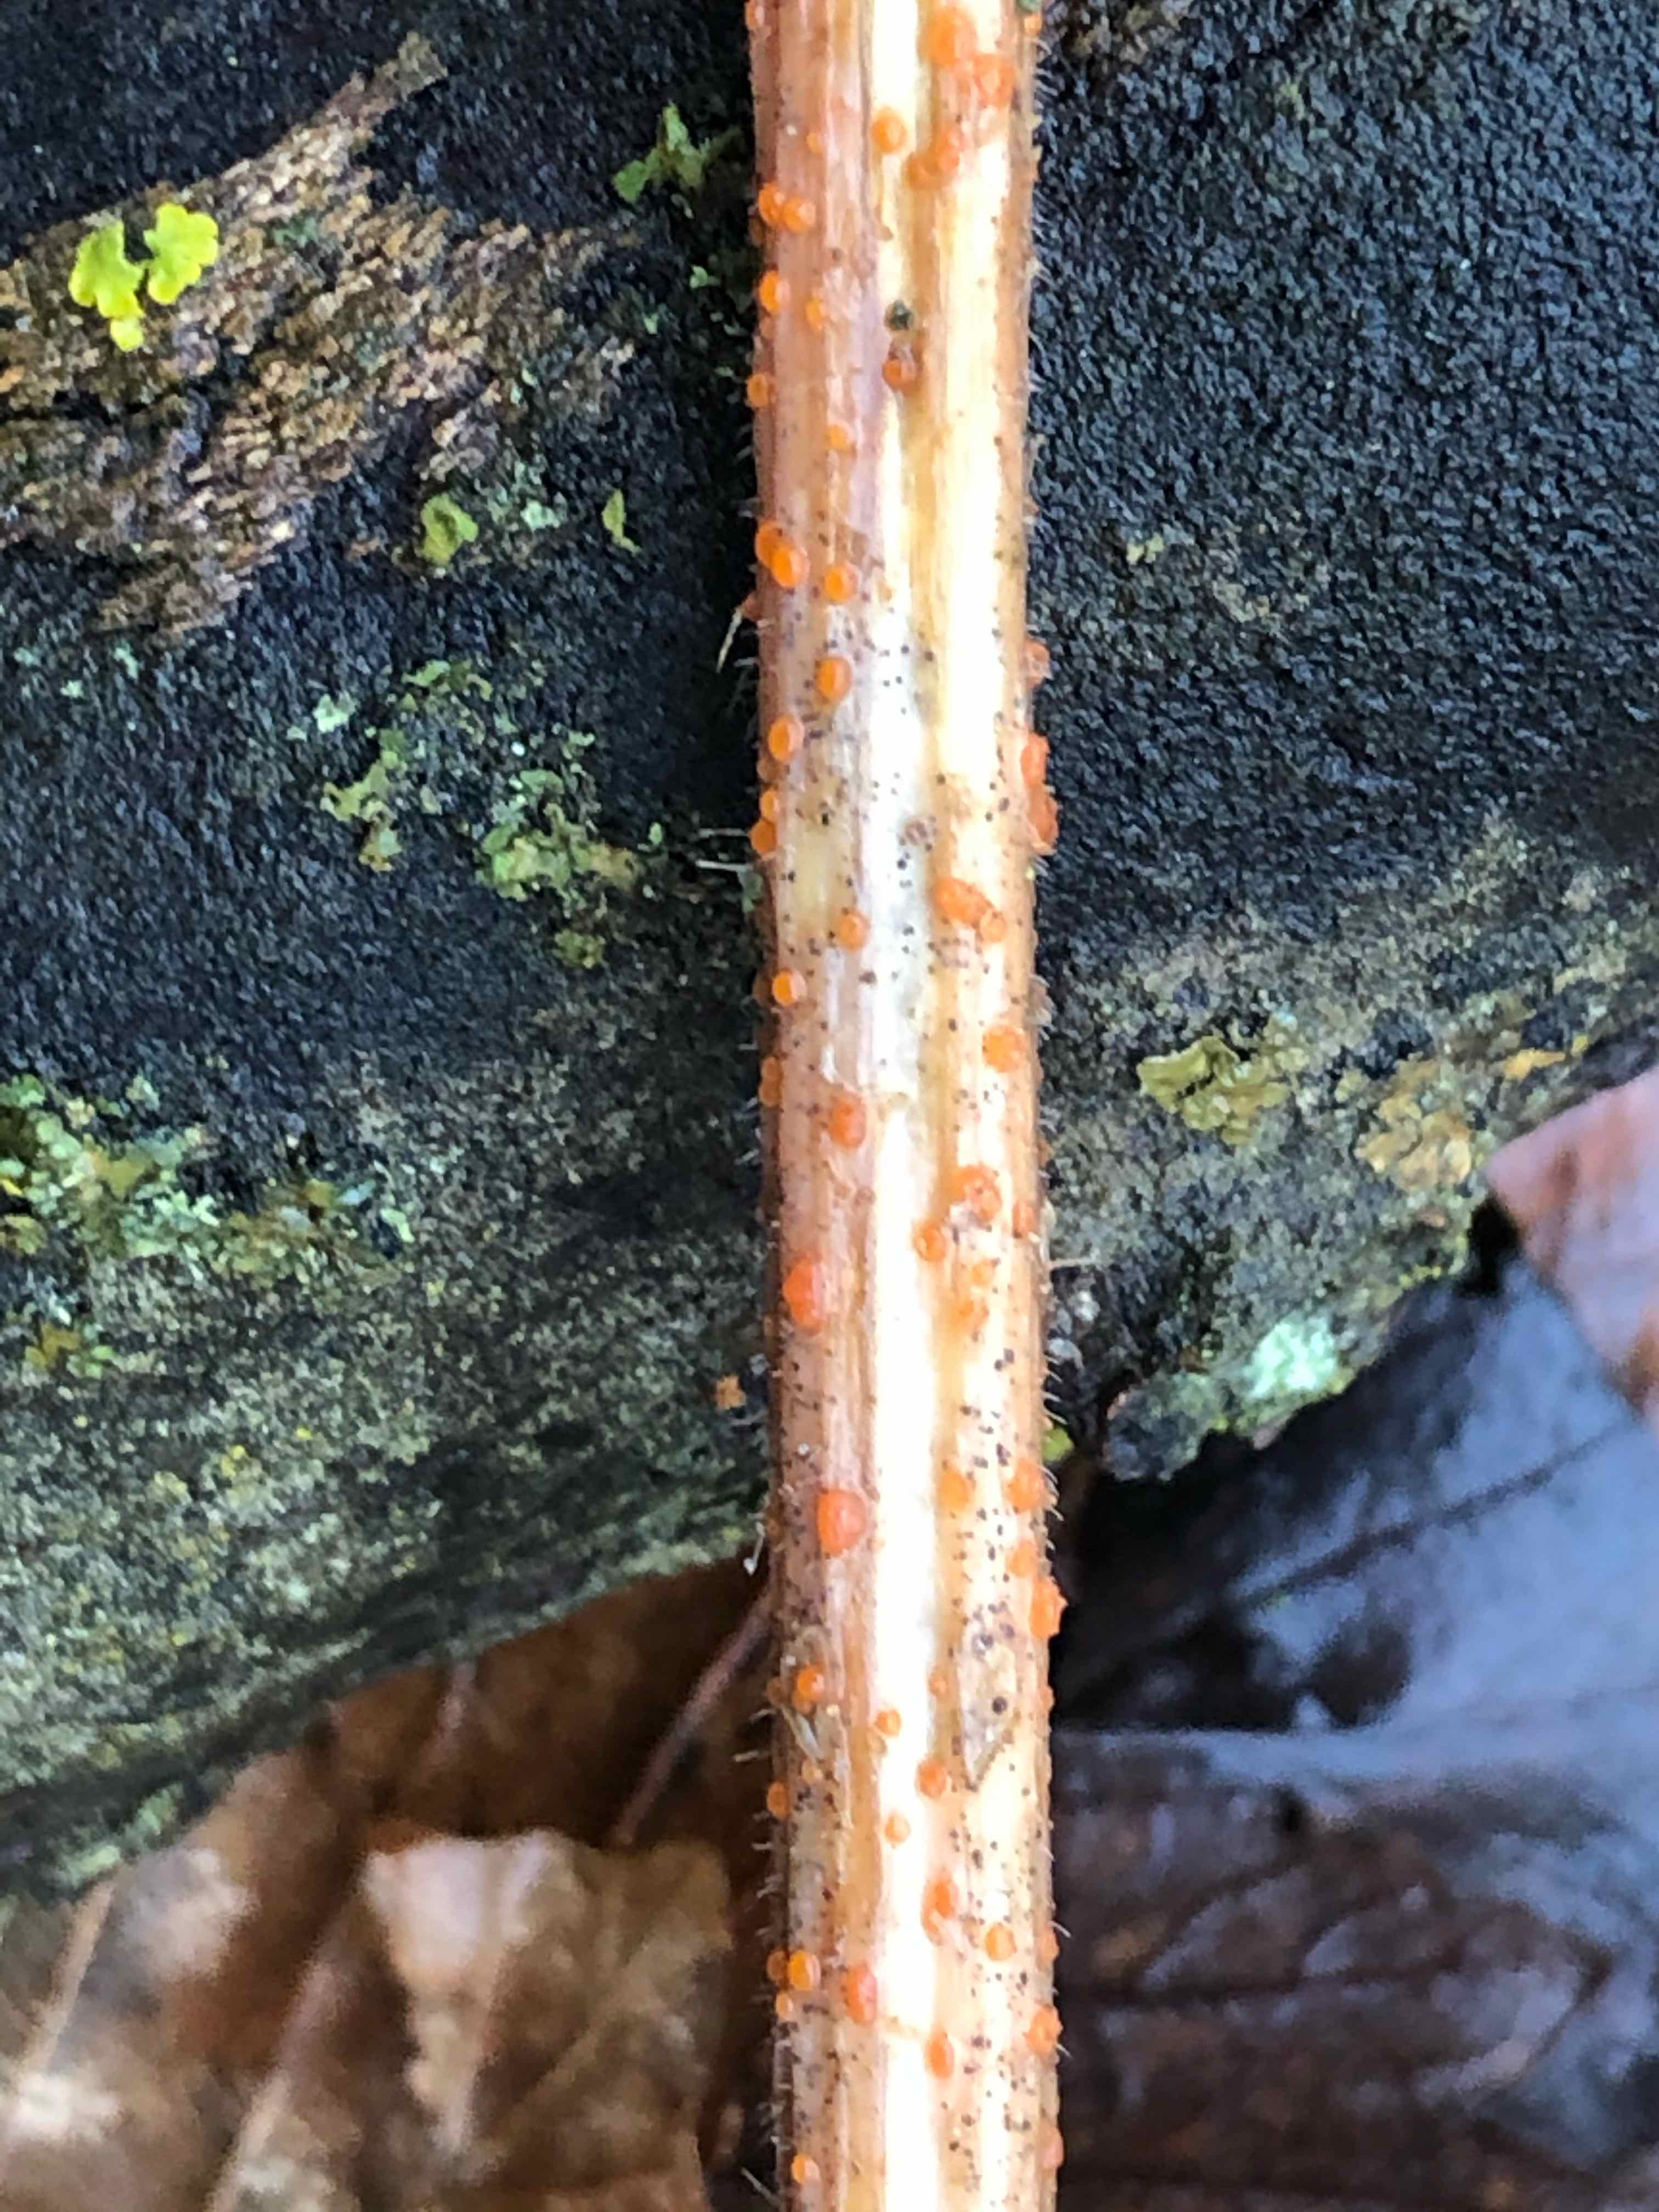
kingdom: Fungi
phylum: Ascomycota
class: Leotiomycetes
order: Helotiales
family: Calloriaceae
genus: Calloria
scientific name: Calloria urticae
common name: nælde-orangeskive
